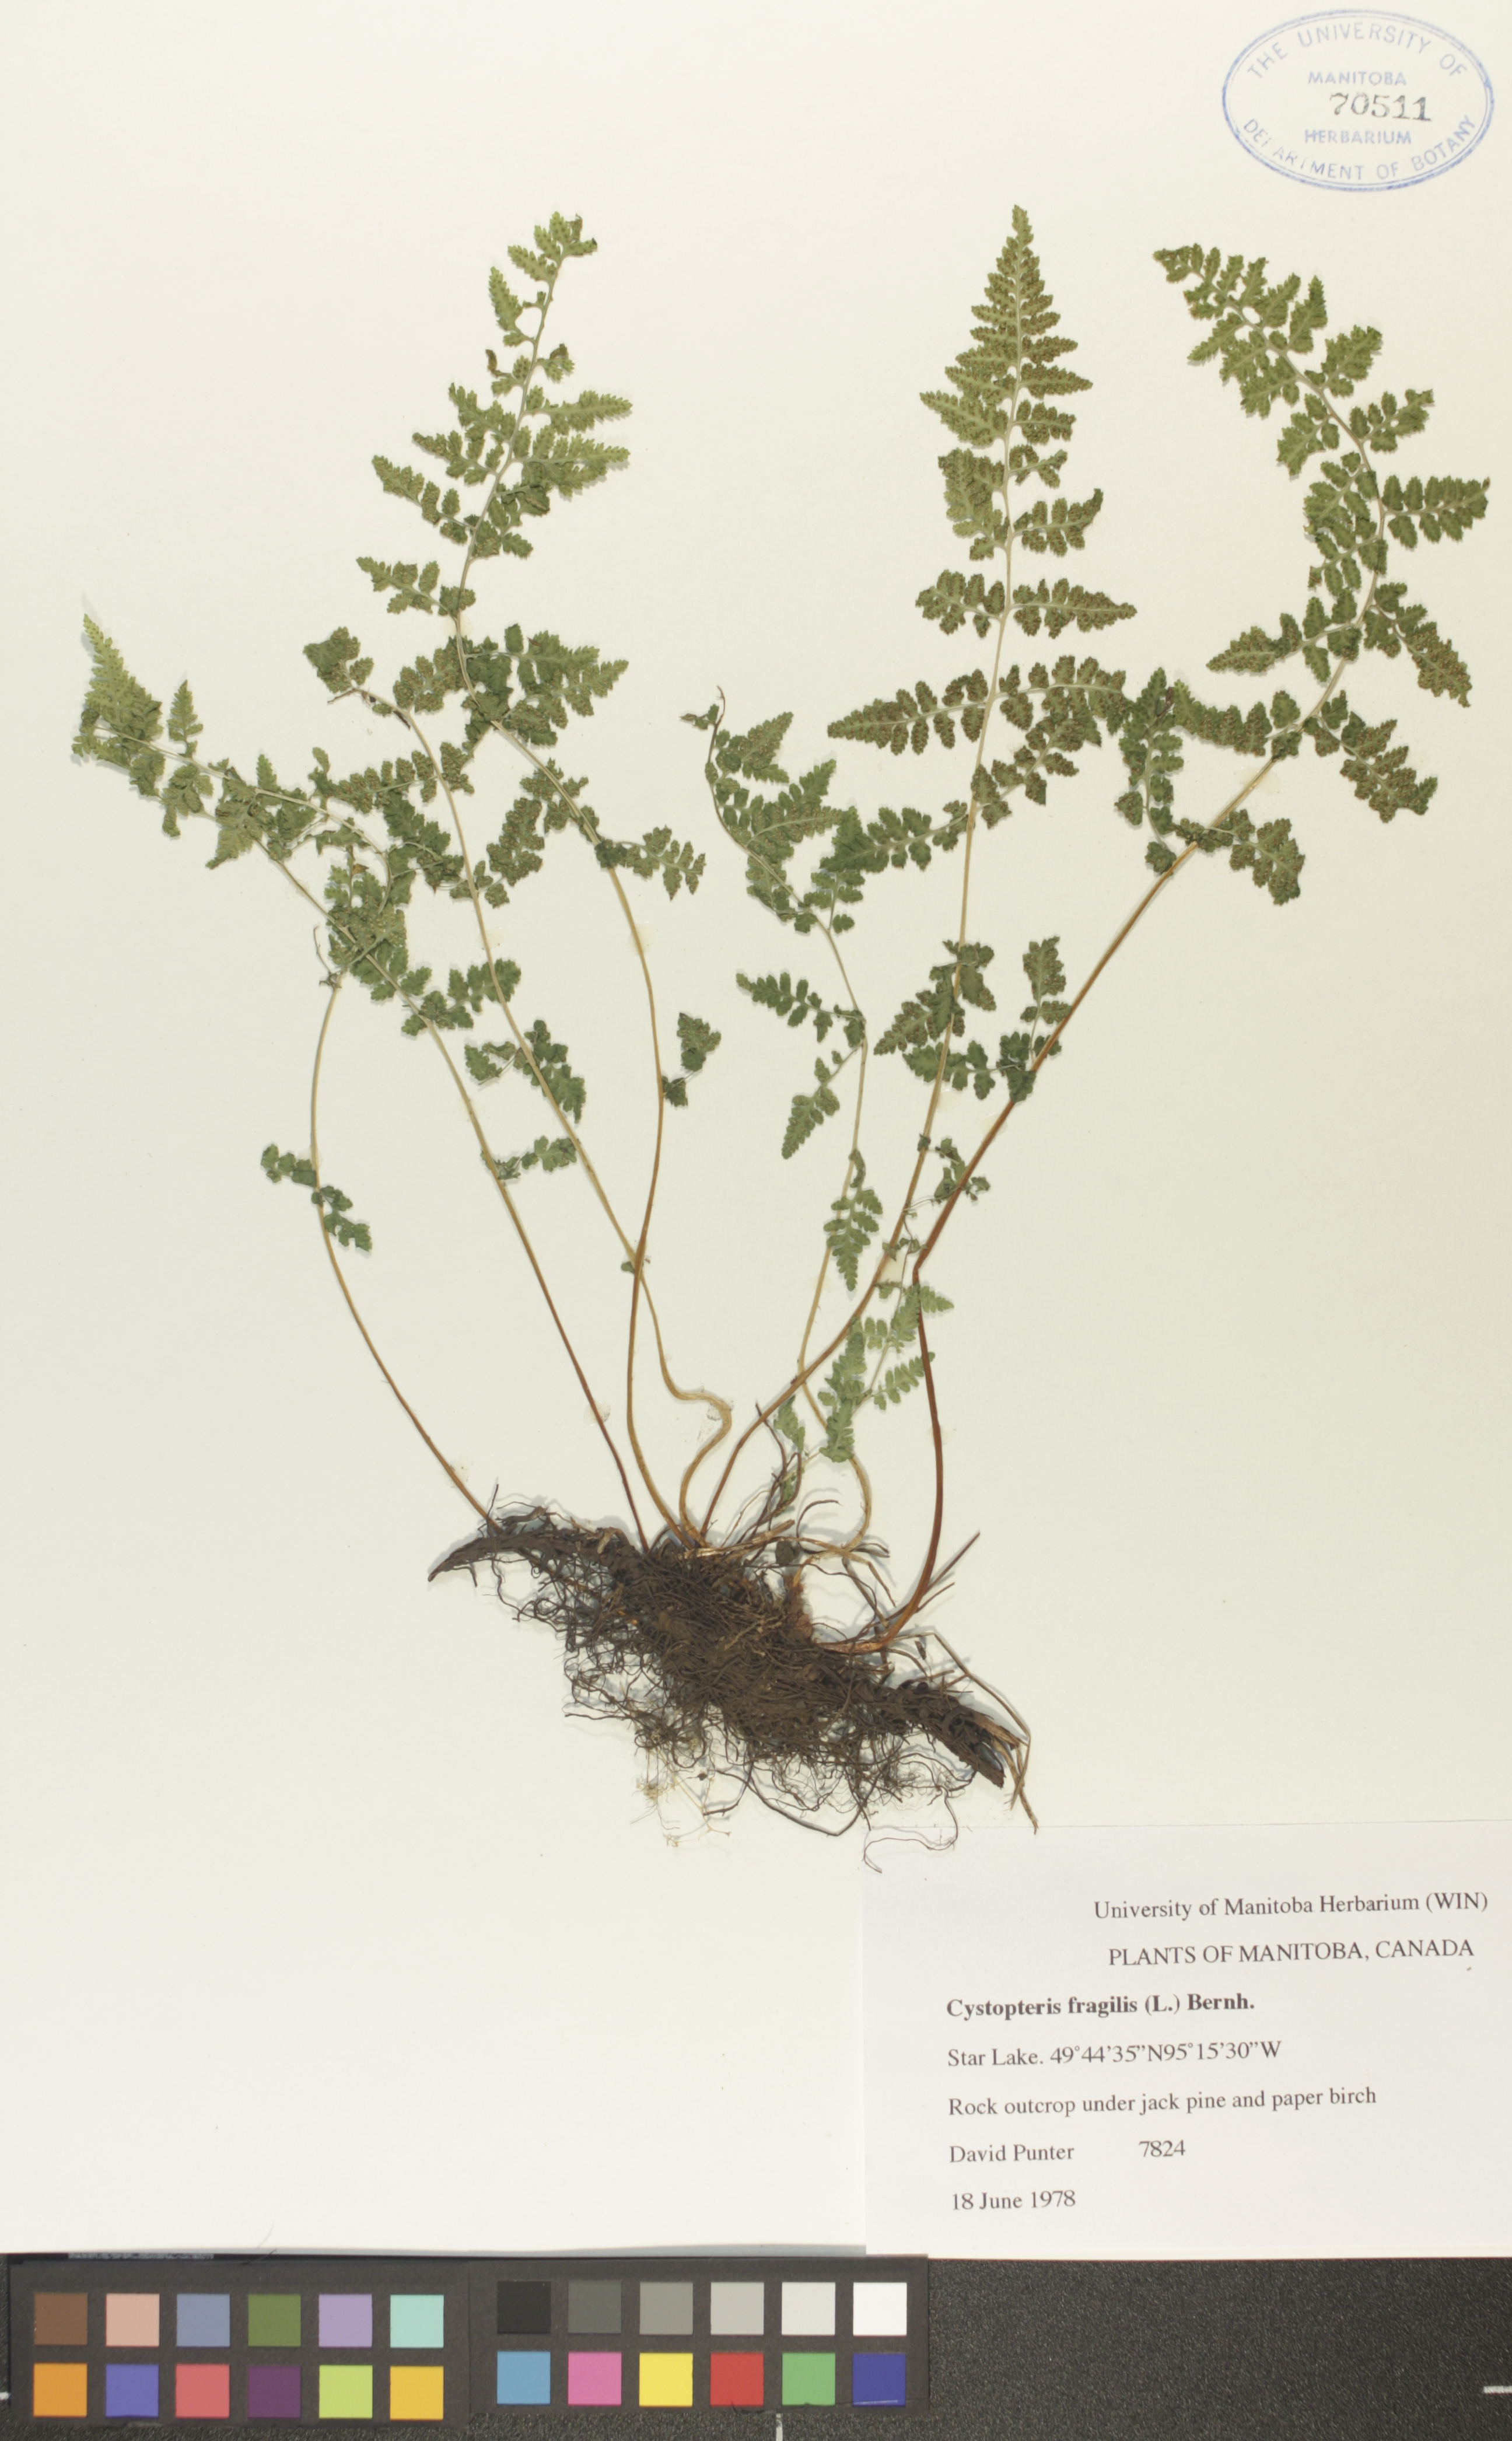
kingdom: Plantae
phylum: Tracheophyta
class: Polypodiopsida
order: Polypodiales
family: Cystopteridaceae
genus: Cystopteris
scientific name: Cystopteris fragilis
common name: Brittle bladder fern
